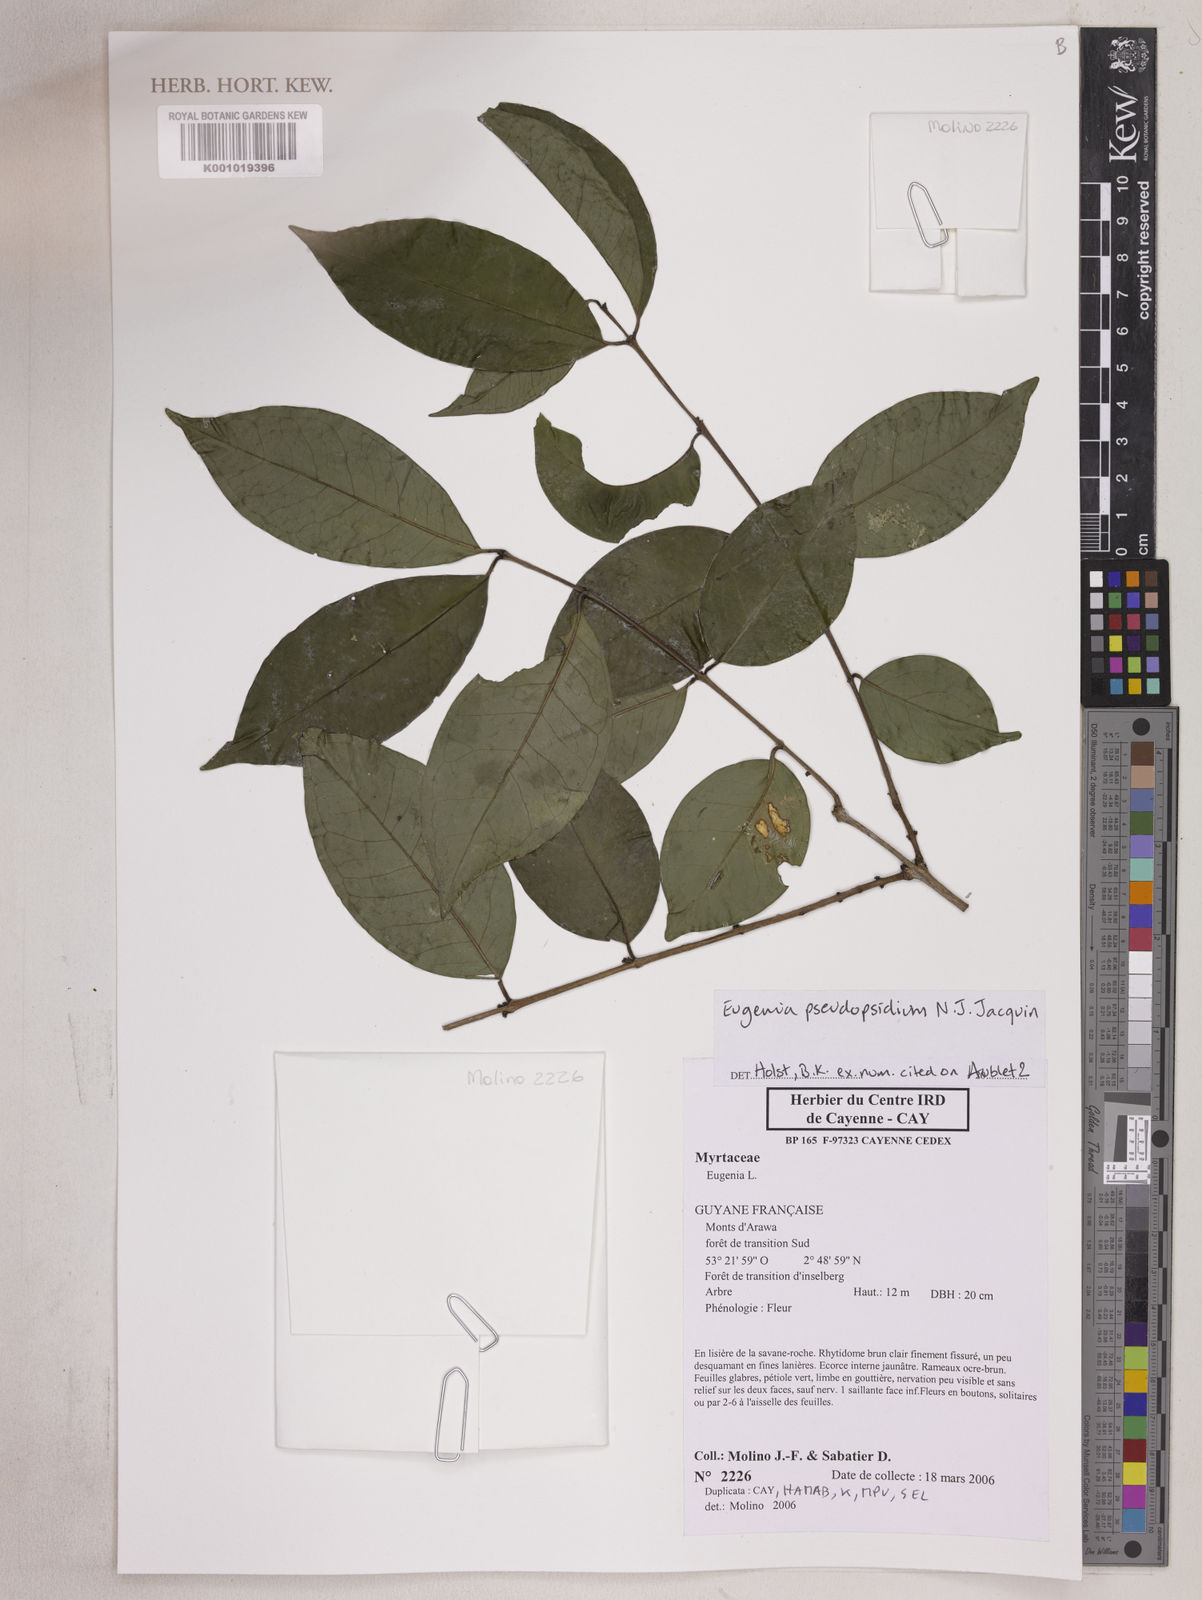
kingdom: Plantae
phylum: Tracheophyta
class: Magnoliopsida
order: Myrtales
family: Myrtaceae
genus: Eugenia
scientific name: Eugenia pseudopsidium
